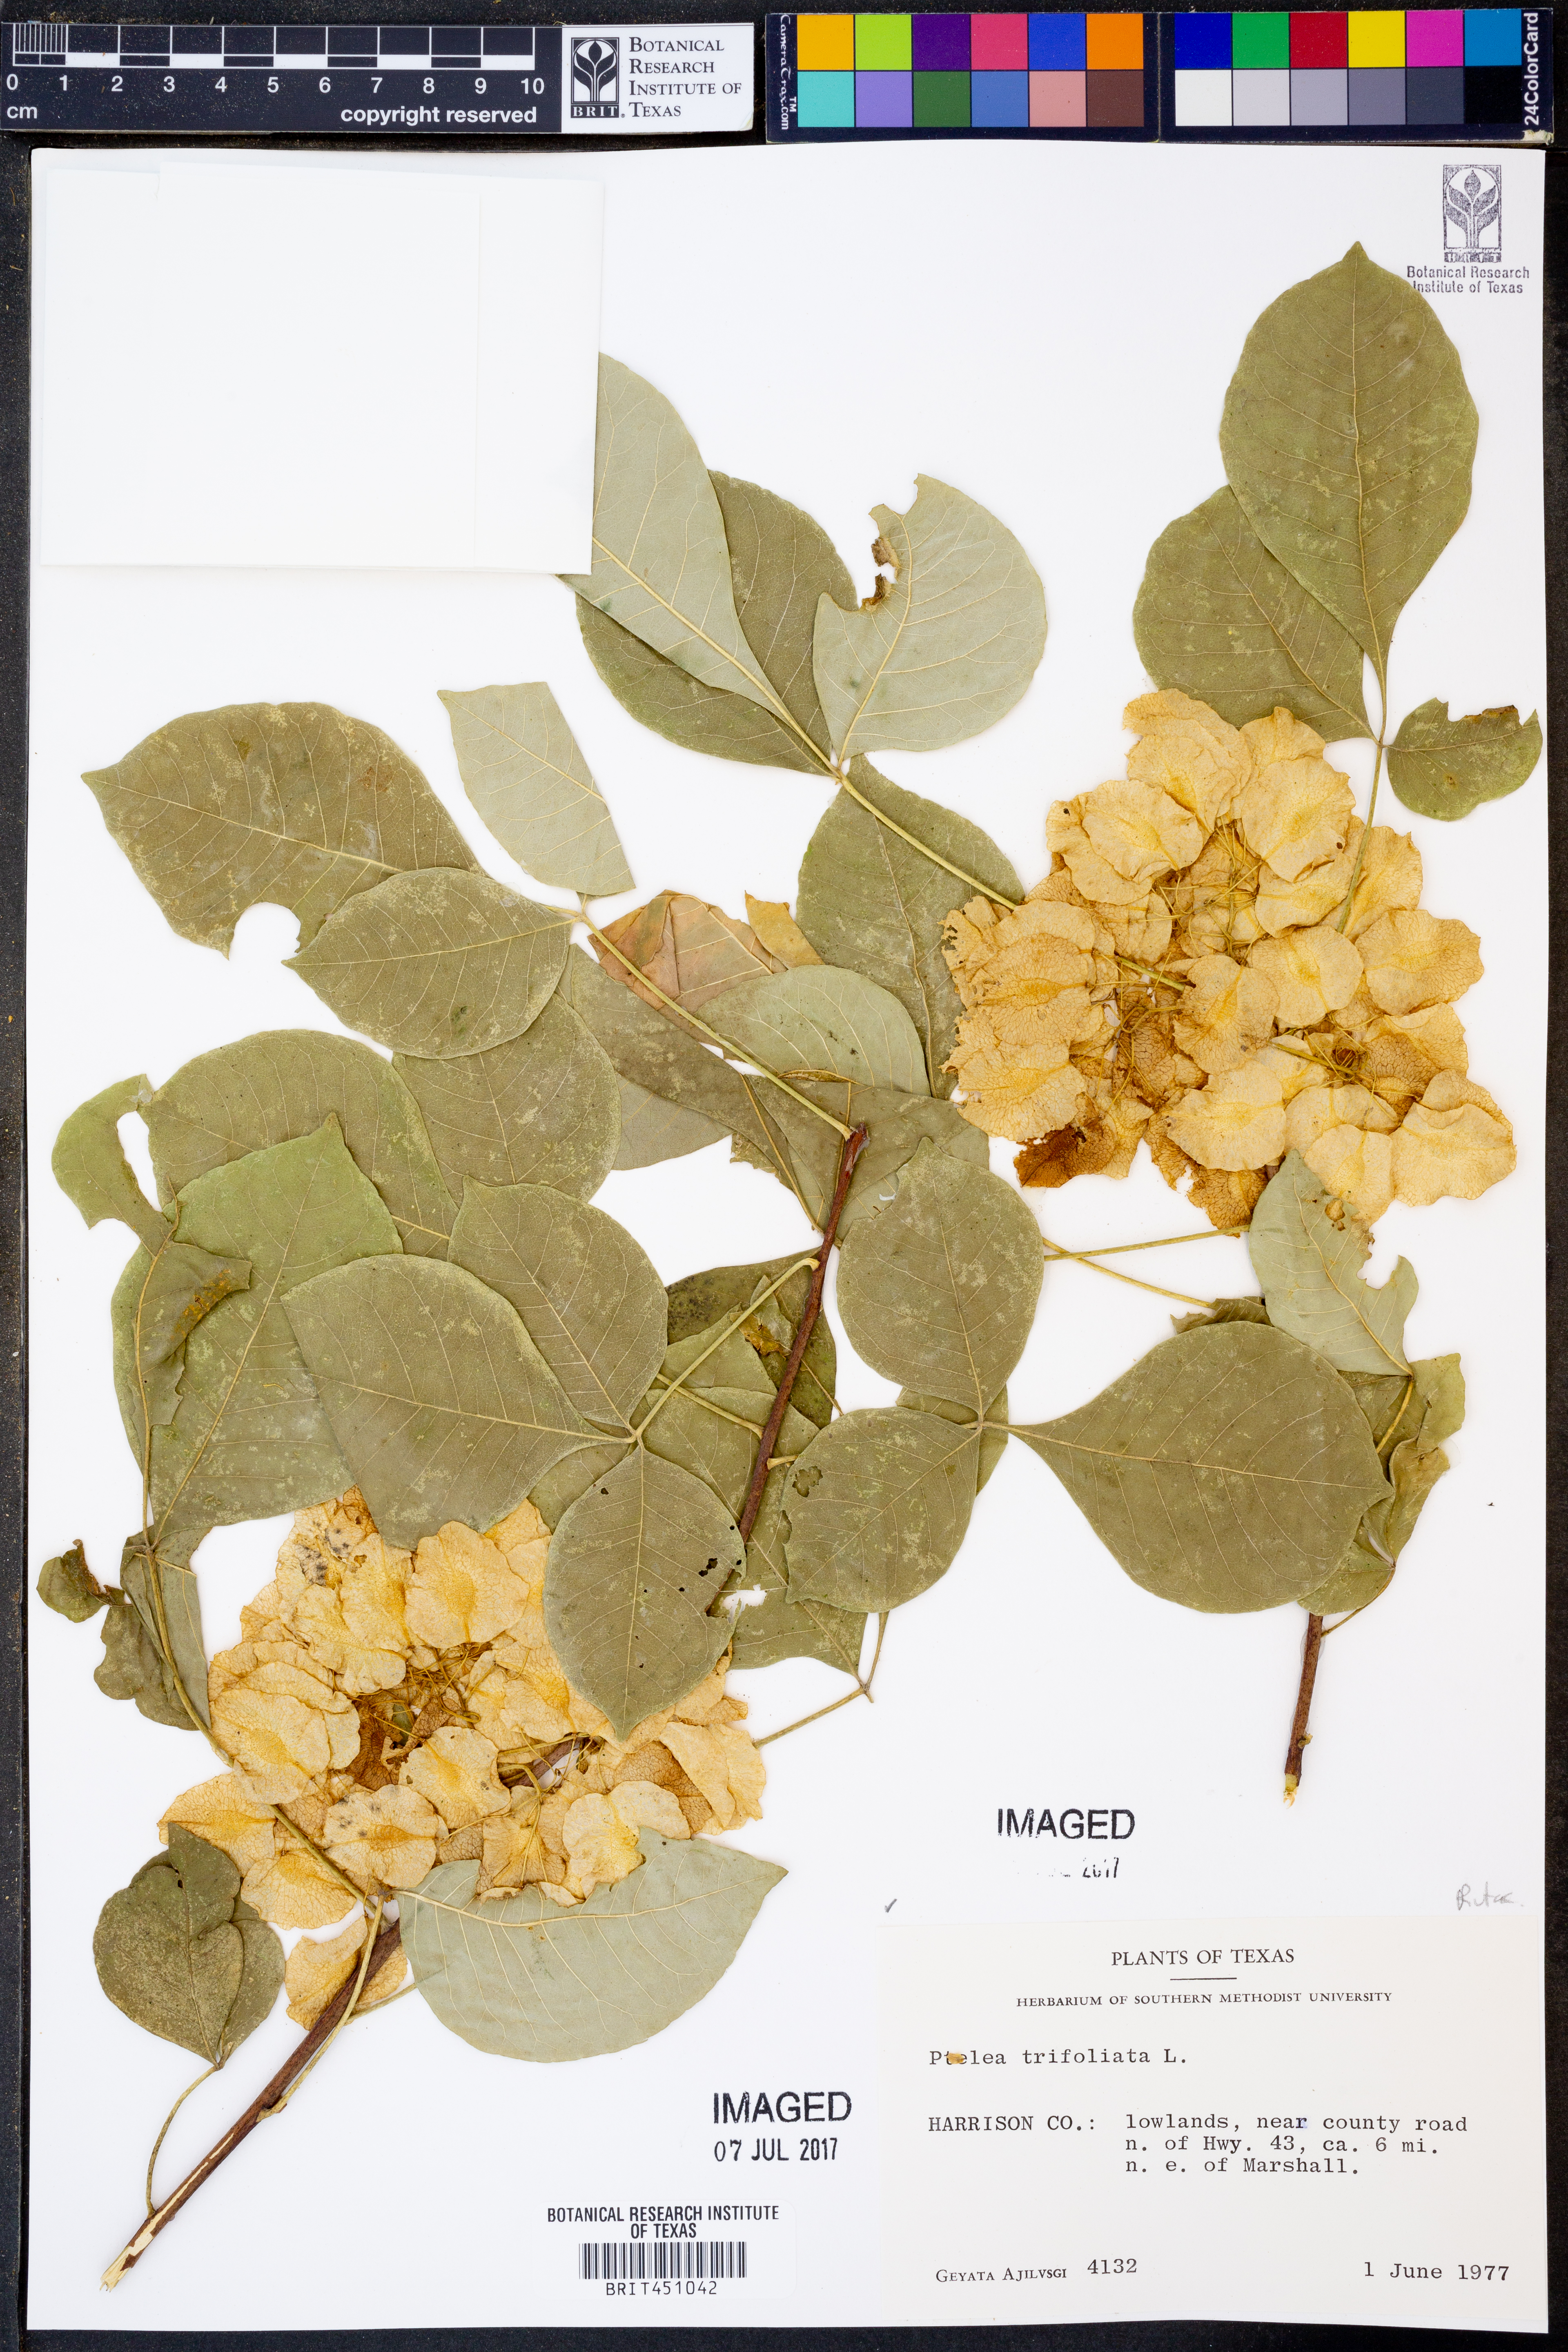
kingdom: Plantae
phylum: Tracheophyta
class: Magnoliopsida
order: Sapindales
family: Rutaceae
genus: Ptelea
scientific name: Ptelea trifoliata
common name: Common hop-tree
